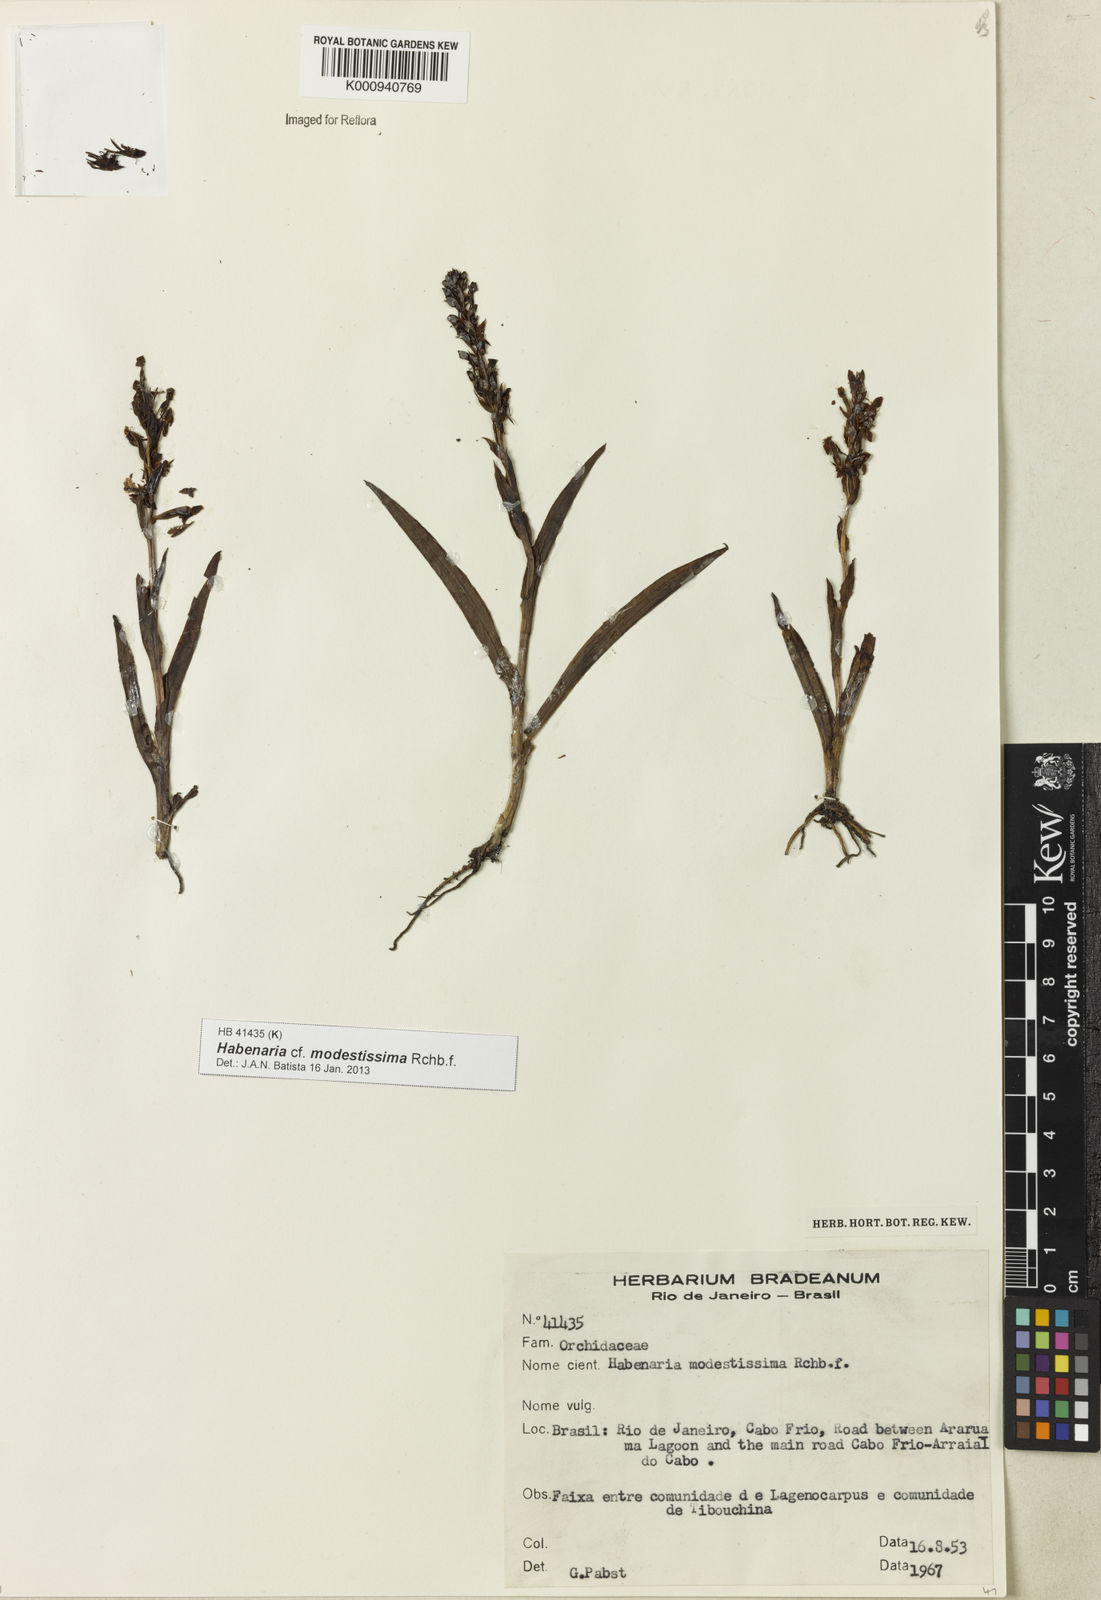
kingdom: Plantae
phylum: Tracheophyta
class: Liliopsida
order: Asparagales
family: Orchidaceae
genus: Habenaria
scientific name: Habenaria modestissima
